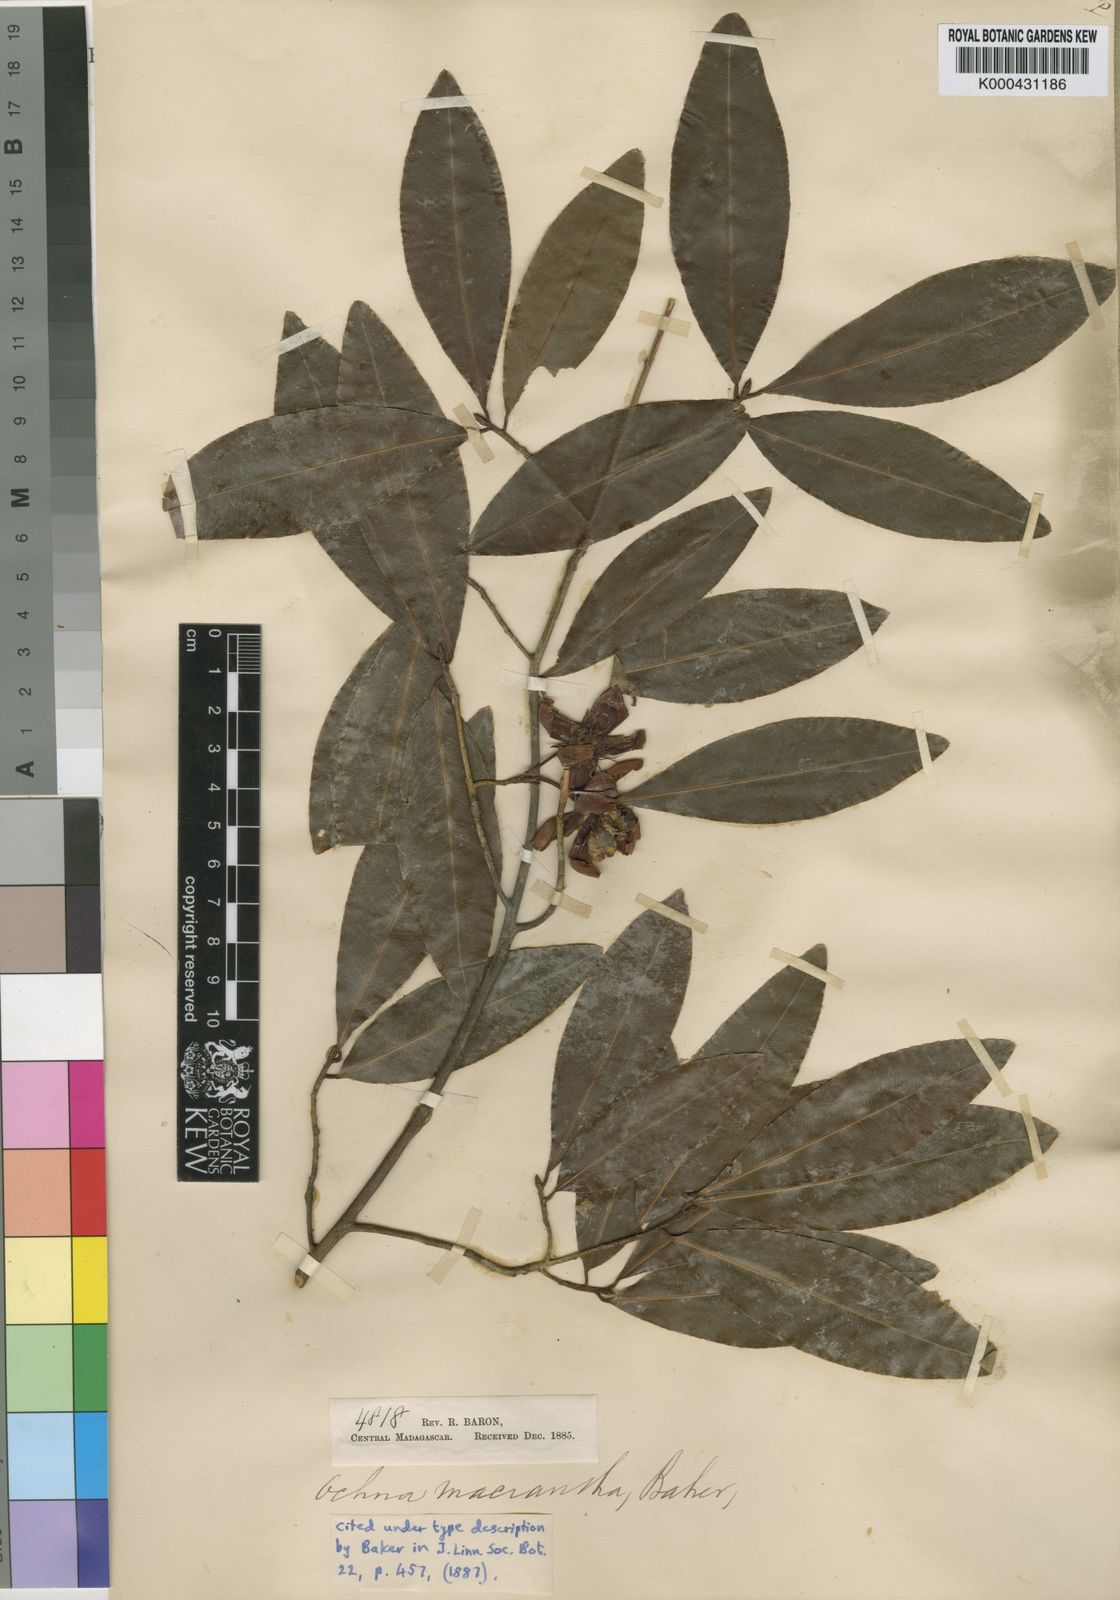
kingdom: Plantae
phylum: Tracheophyta
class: Magnoliopsida
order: Malpighiales
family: Ochnaceae
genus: Ochna
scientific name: Ochna macrantha
